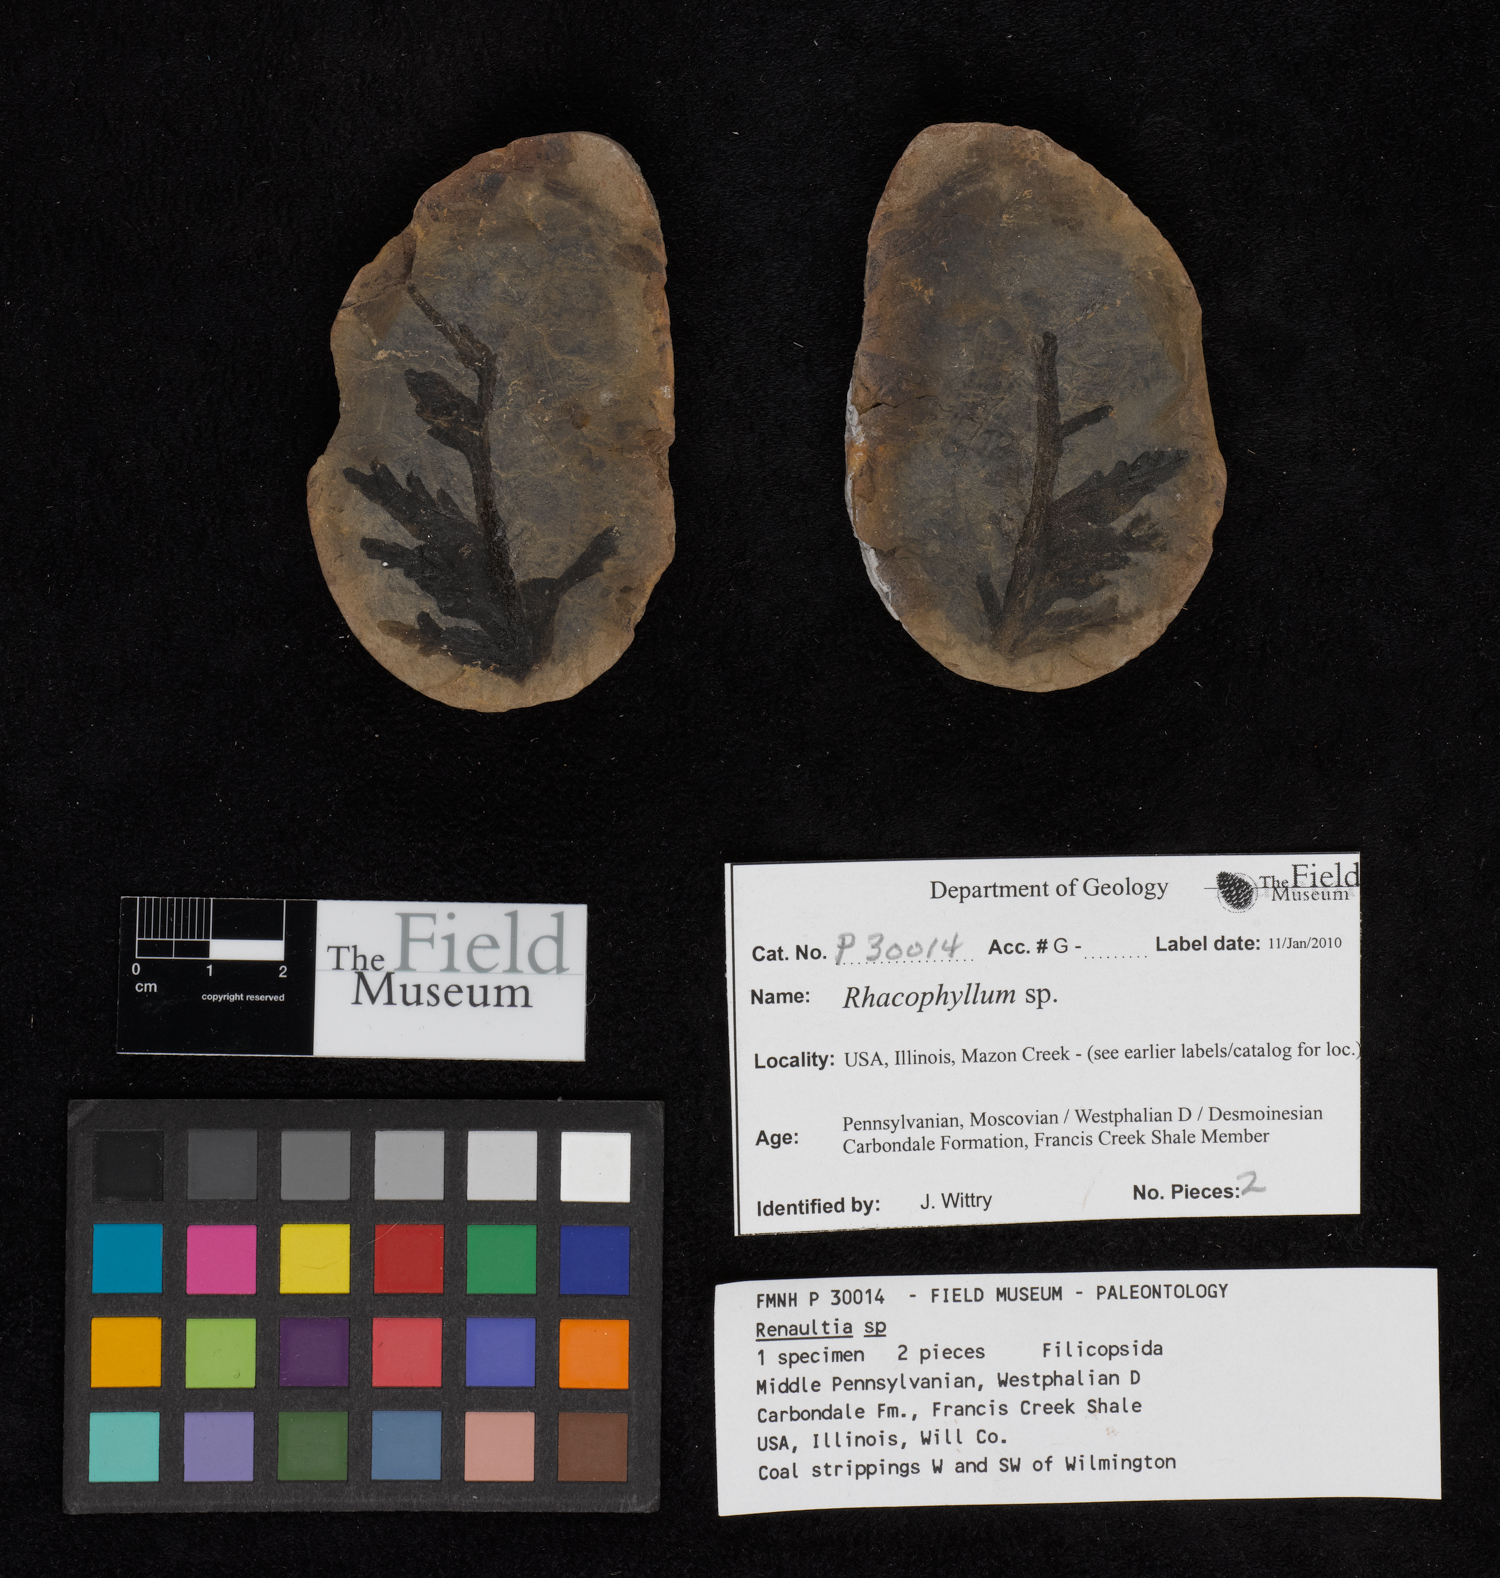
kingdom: Plantae
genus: Rhacophyllum
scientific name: Rhacophyllum
